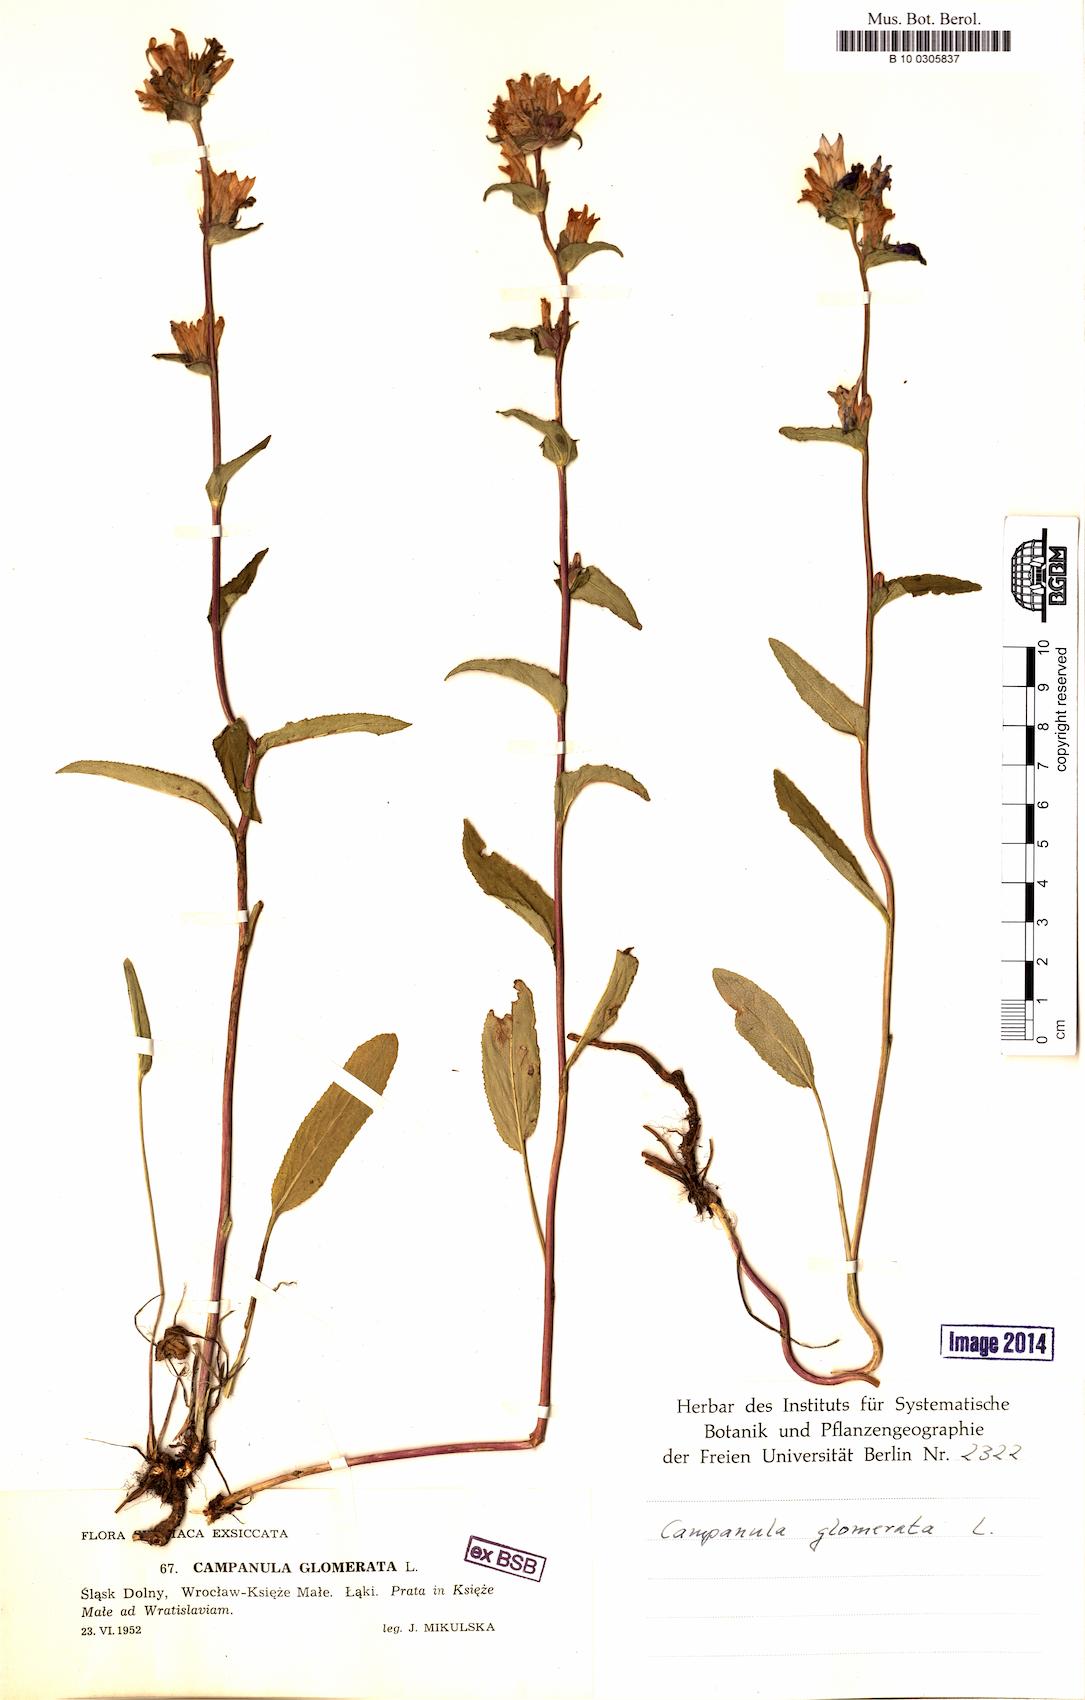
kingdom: Plantae
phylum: Tracheophyta
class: Magnoliopsida
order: Asterales
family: Campanulaceae
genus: Campanula
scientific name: Campanula glomerata
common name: Clustered bellflower
